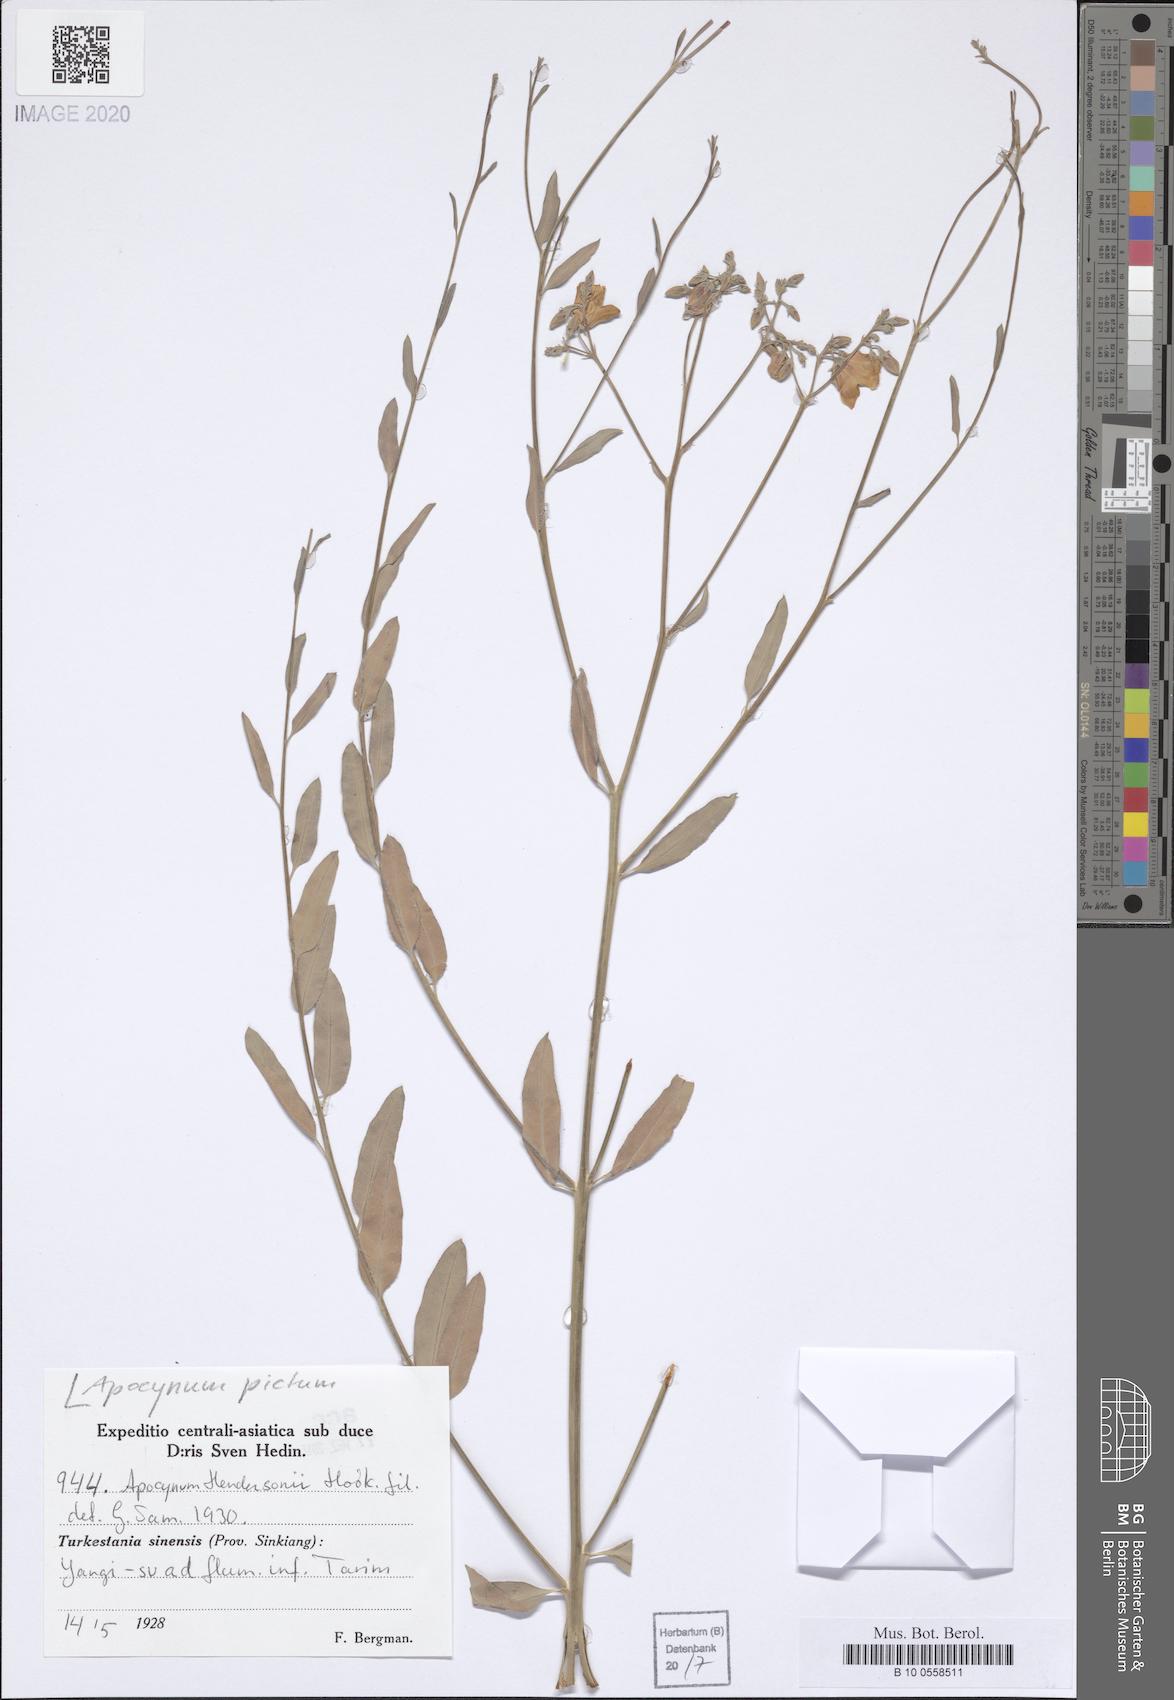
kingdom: Plantae
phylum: Tracheophyta
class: Magnoliopsida
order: Gentianales
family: Apocynaceae
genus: Poacynum
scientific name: Poacynum pictum
